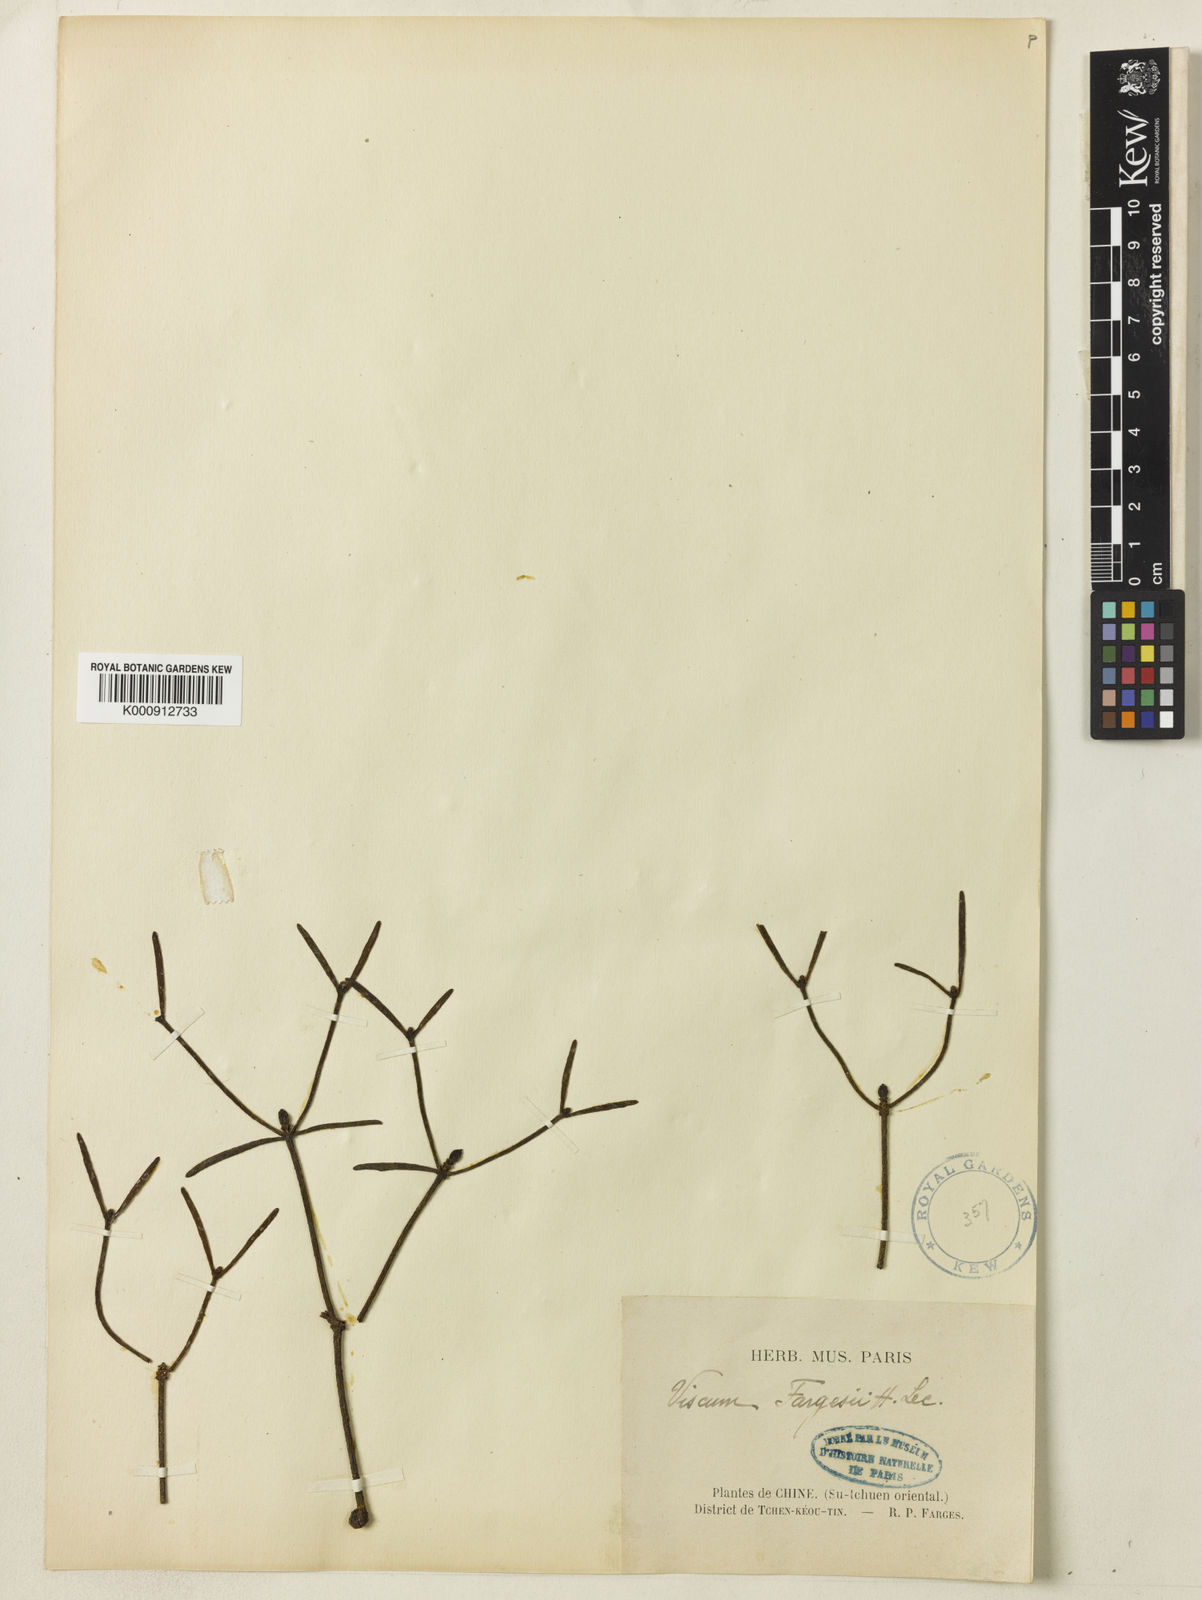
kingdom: Plantae
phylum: Tracheophyta
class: Magnoliopsida
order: Santalales
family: Viscaceae
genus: Viscum
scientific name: Viscum fargesii
